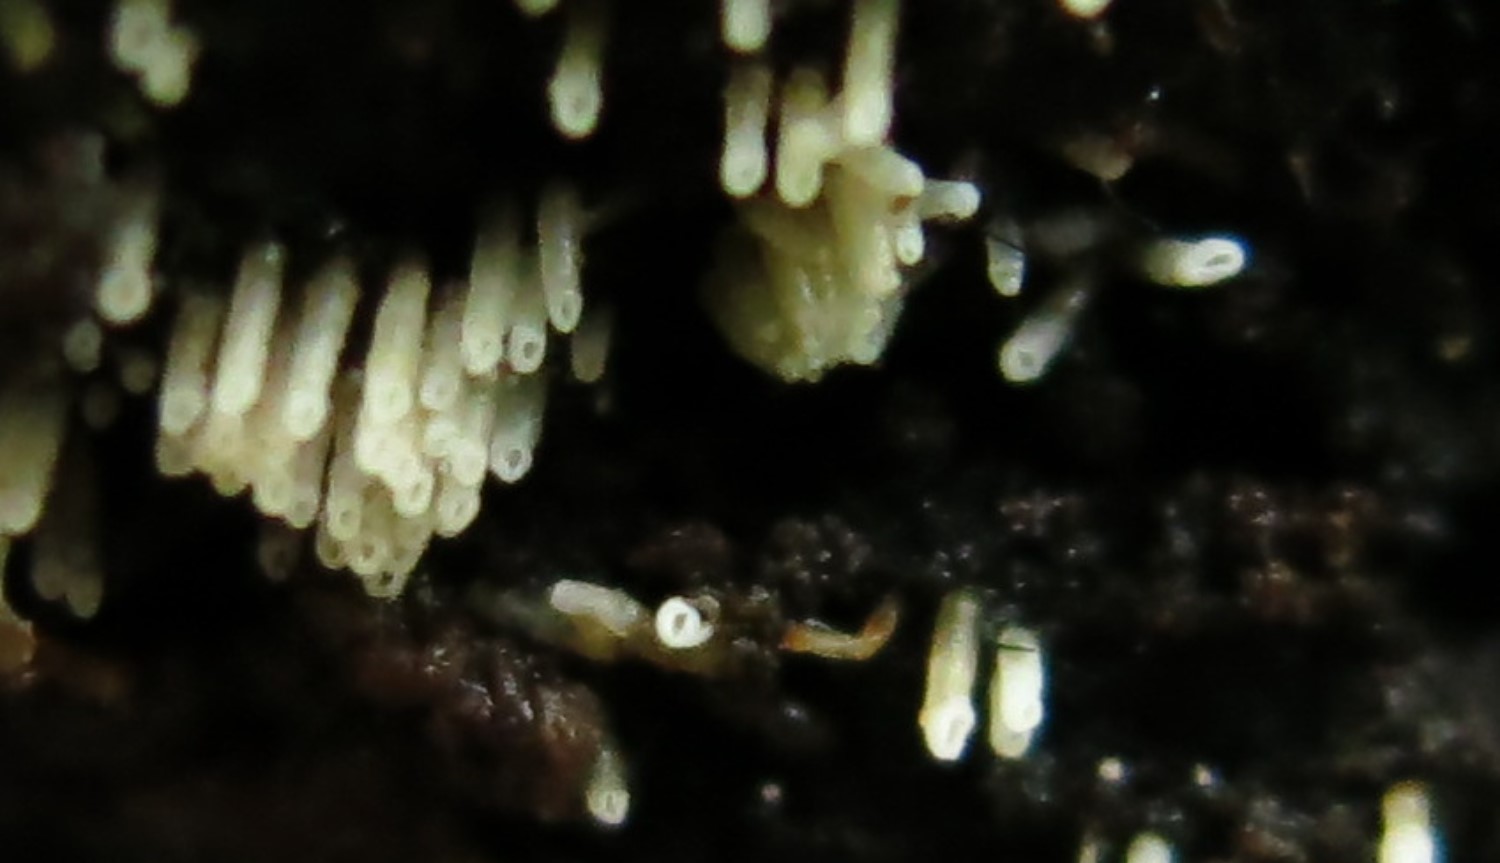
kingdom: Fungi
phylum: Basidiomycota
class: Agaricomycetes
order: Agaricales
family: Marasmiaceae
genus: Henningsomyces
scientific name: Henningsomyces candidus
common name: glat hængerør
